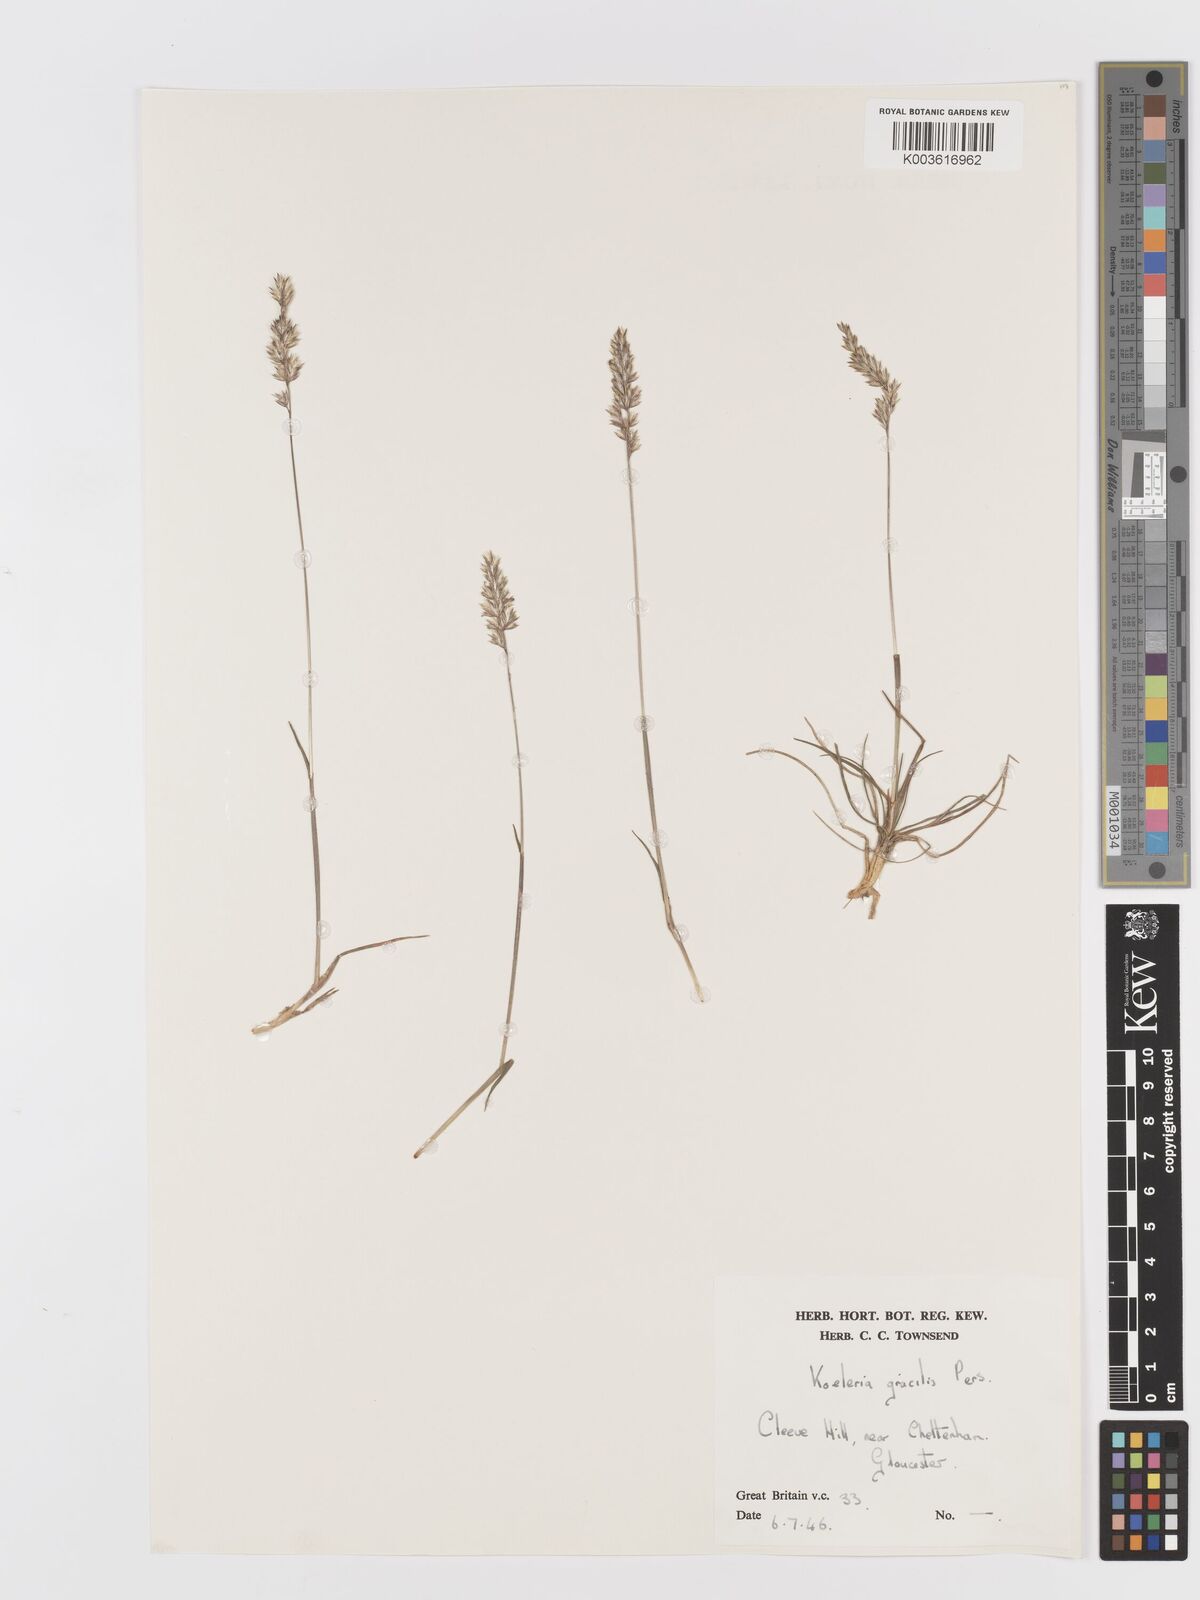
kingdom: Plantae
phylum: Tracheophyta
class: Liliopsida
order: Poales
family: Poaceae
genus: Koeleria
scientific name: Koeleria nitidula
